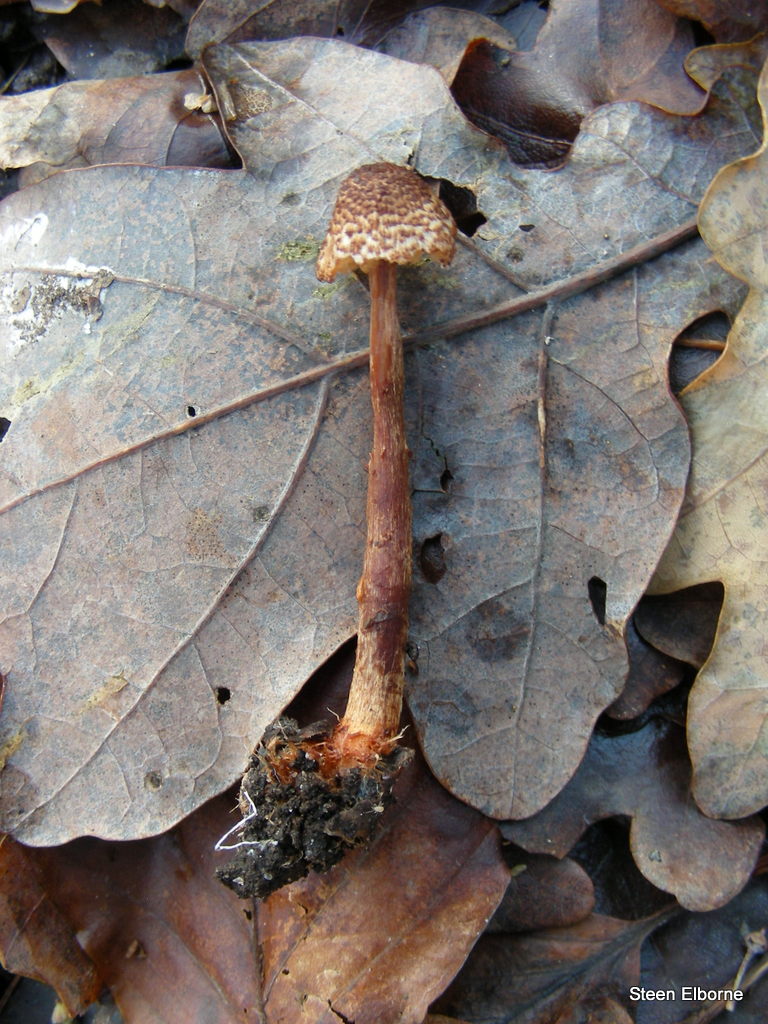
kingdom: Fungi
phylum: Basidiomycota
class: Agaricomycetes
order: Agaricales
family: Agaricaceae
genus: Lepiota
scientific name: Lepiota castanea
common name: kastaniebrun parasolhat
